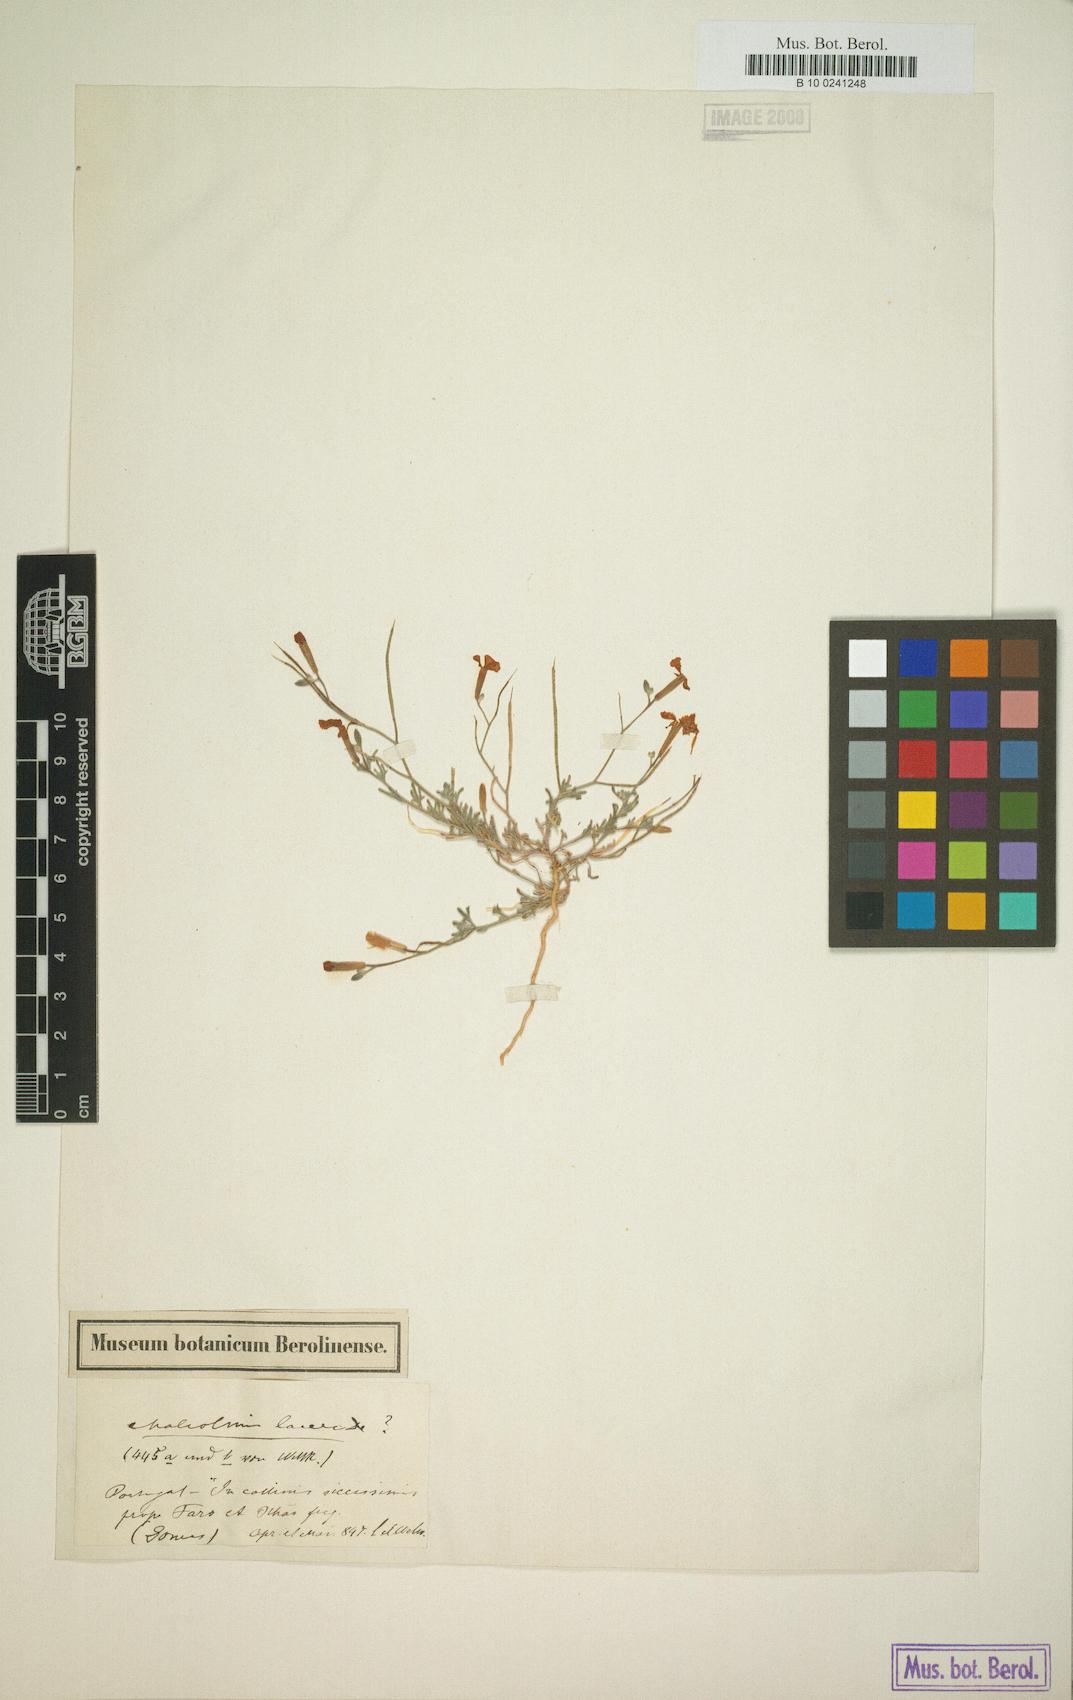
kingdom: Plantae
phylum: Tracheophyta
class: Magnoliopsida
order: Brassicales
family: Brassicaceae
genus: Raphanus
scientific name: Raphanus raphanistrum
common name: Wild radish
